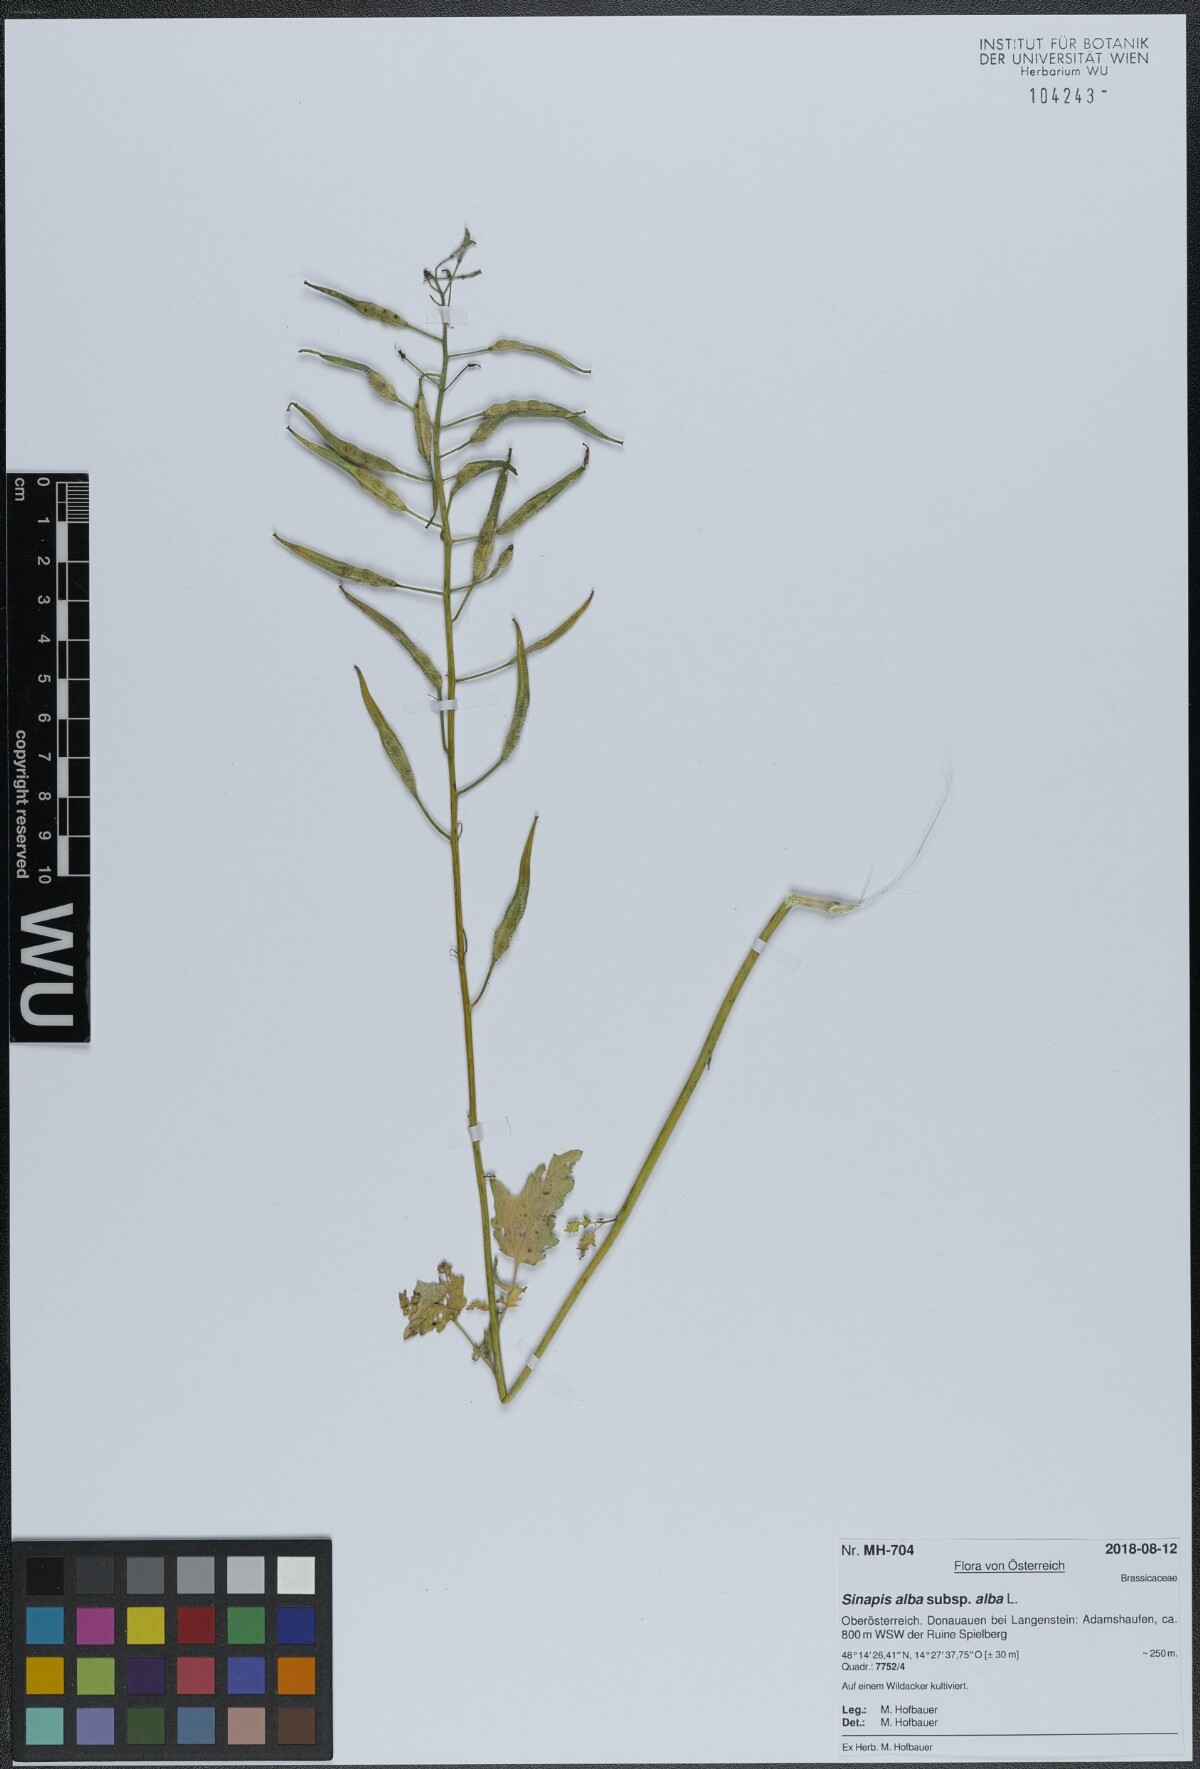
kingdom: Plantae
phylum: Tracheophyta
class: Magnoliopsida
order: Brassicales
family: Brassicaceae
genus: Sinapis
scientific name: Sinapis alba
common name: White mustard
